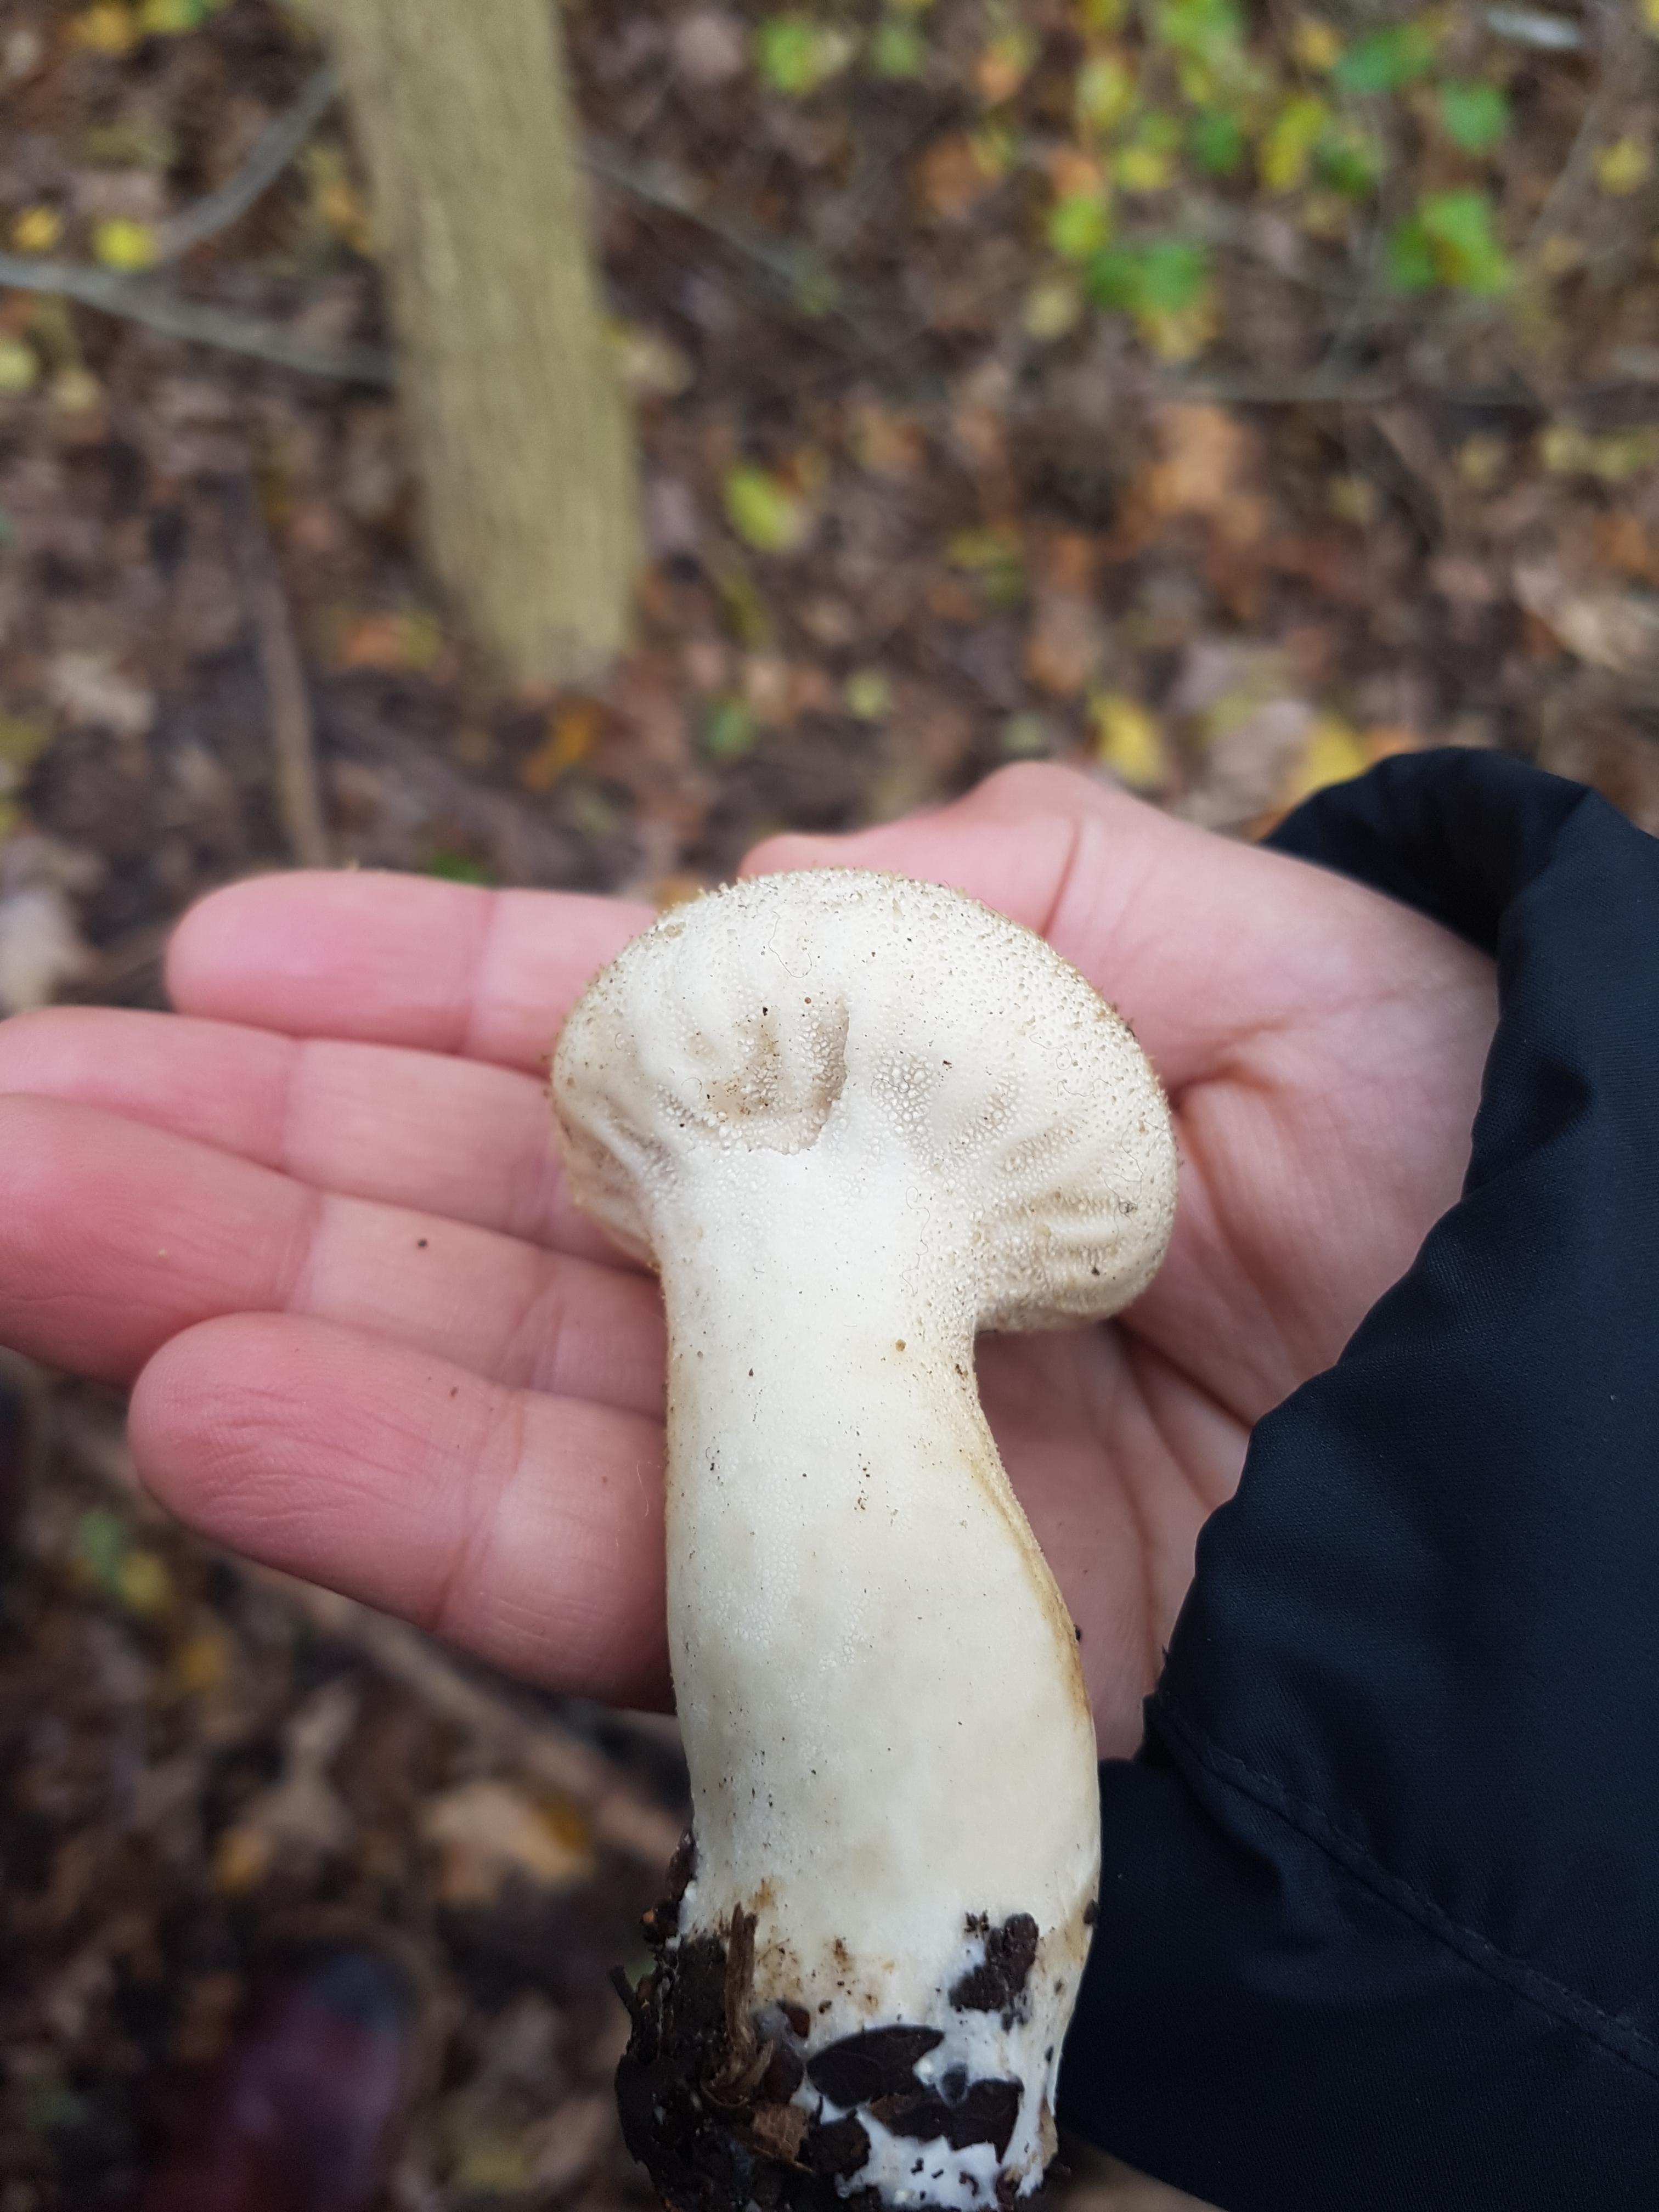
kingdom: Fungi
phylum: Basidiomycota
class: Agaricomycetes
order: Agaricales
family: Lycoperdaceae
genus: Lycoperdon
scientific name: Lycoperdon perlatum
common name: krystal-støvbold
